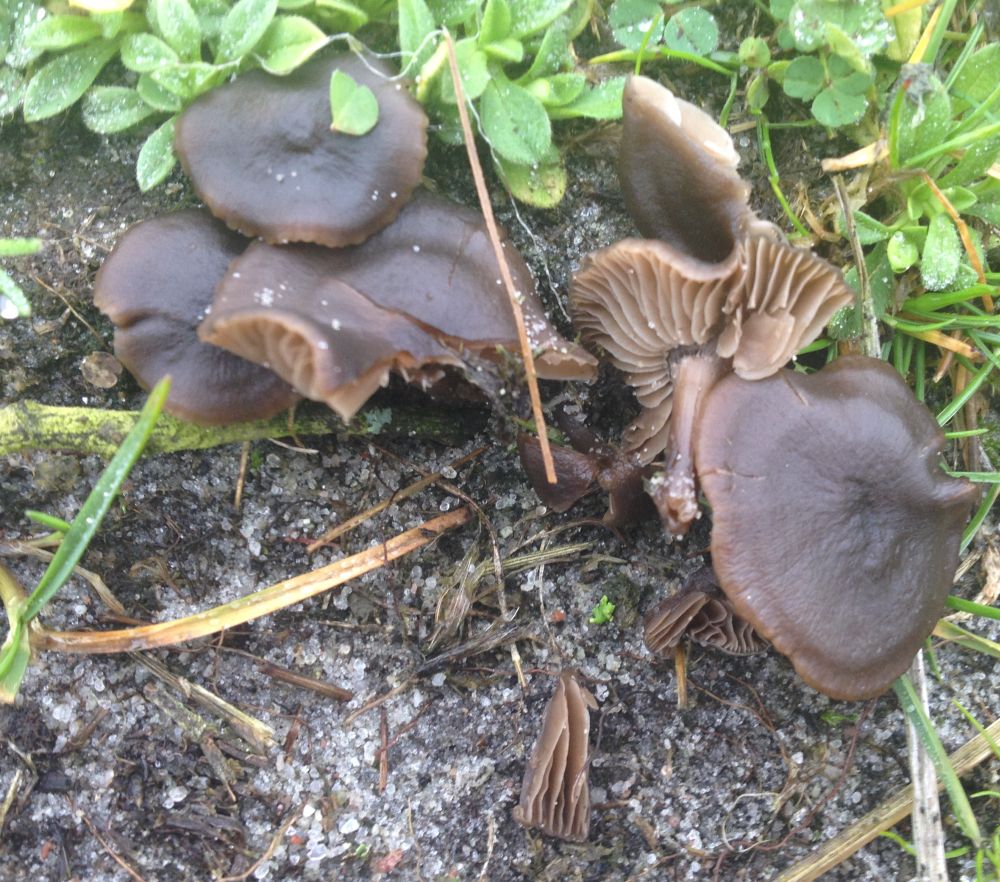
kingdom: Fungi
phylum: Basidiomycota
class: Agaricomycetes
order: Agaricales
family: Entolomataceae
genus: Entoloma
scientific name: Entoloma
